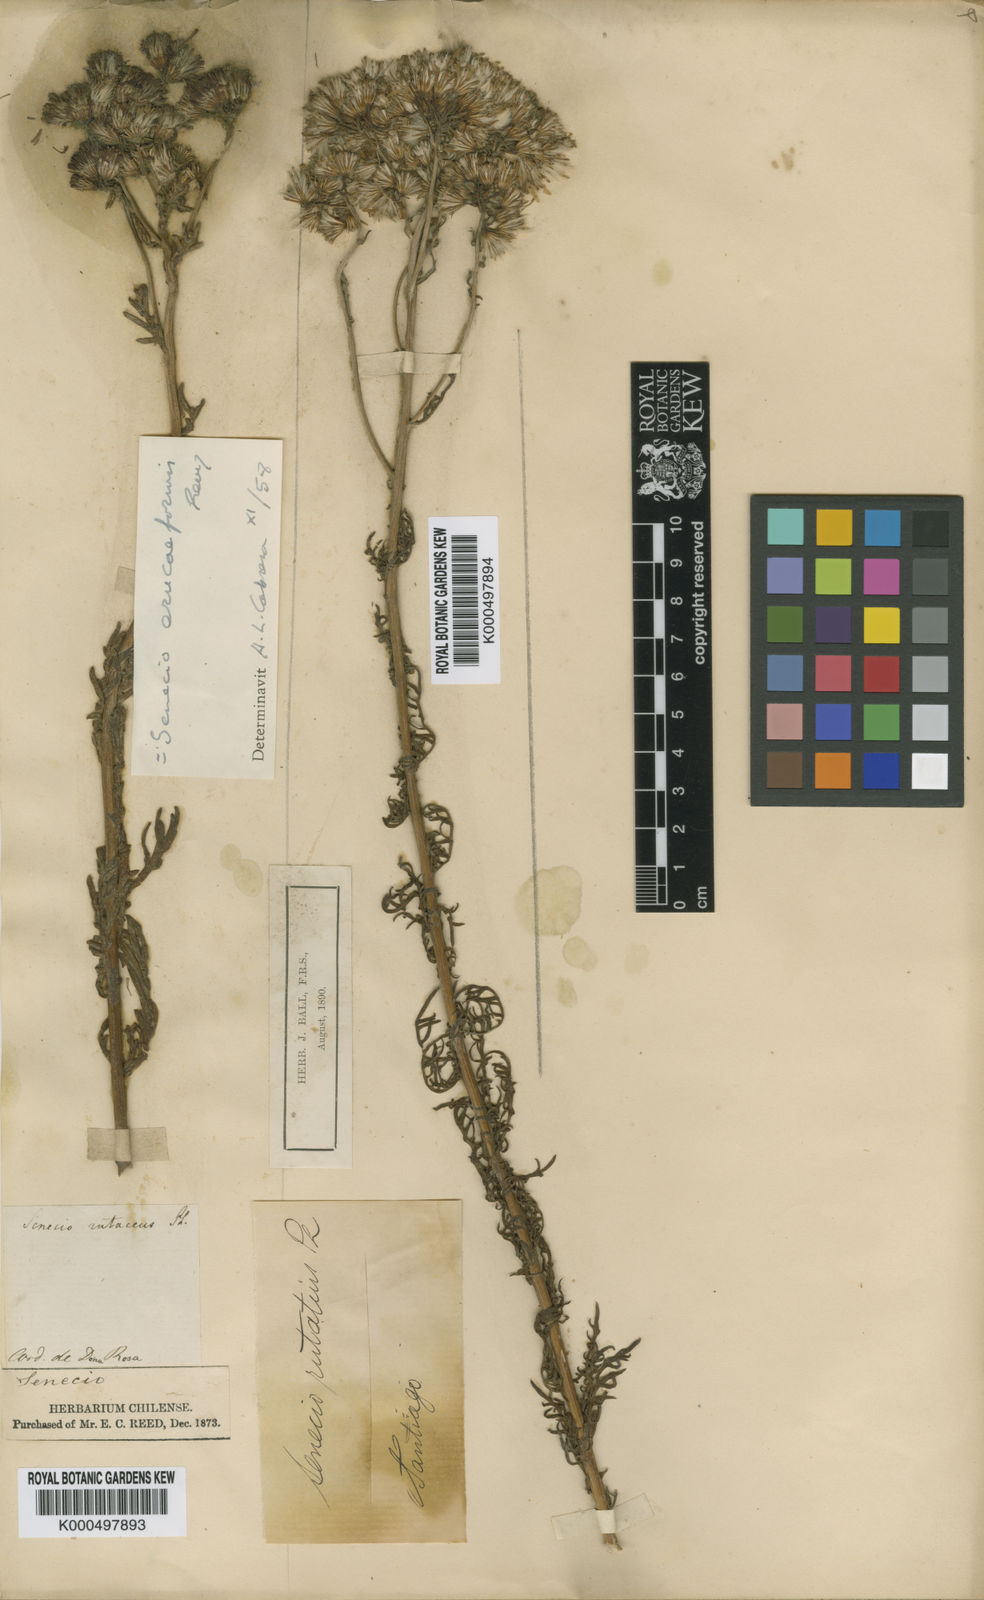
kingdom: Plantae
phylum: Tracheophyta
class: Magnoliopsida
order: Asterales
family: Asteraceae
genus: Senecio
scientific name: Senecio eruciformis
